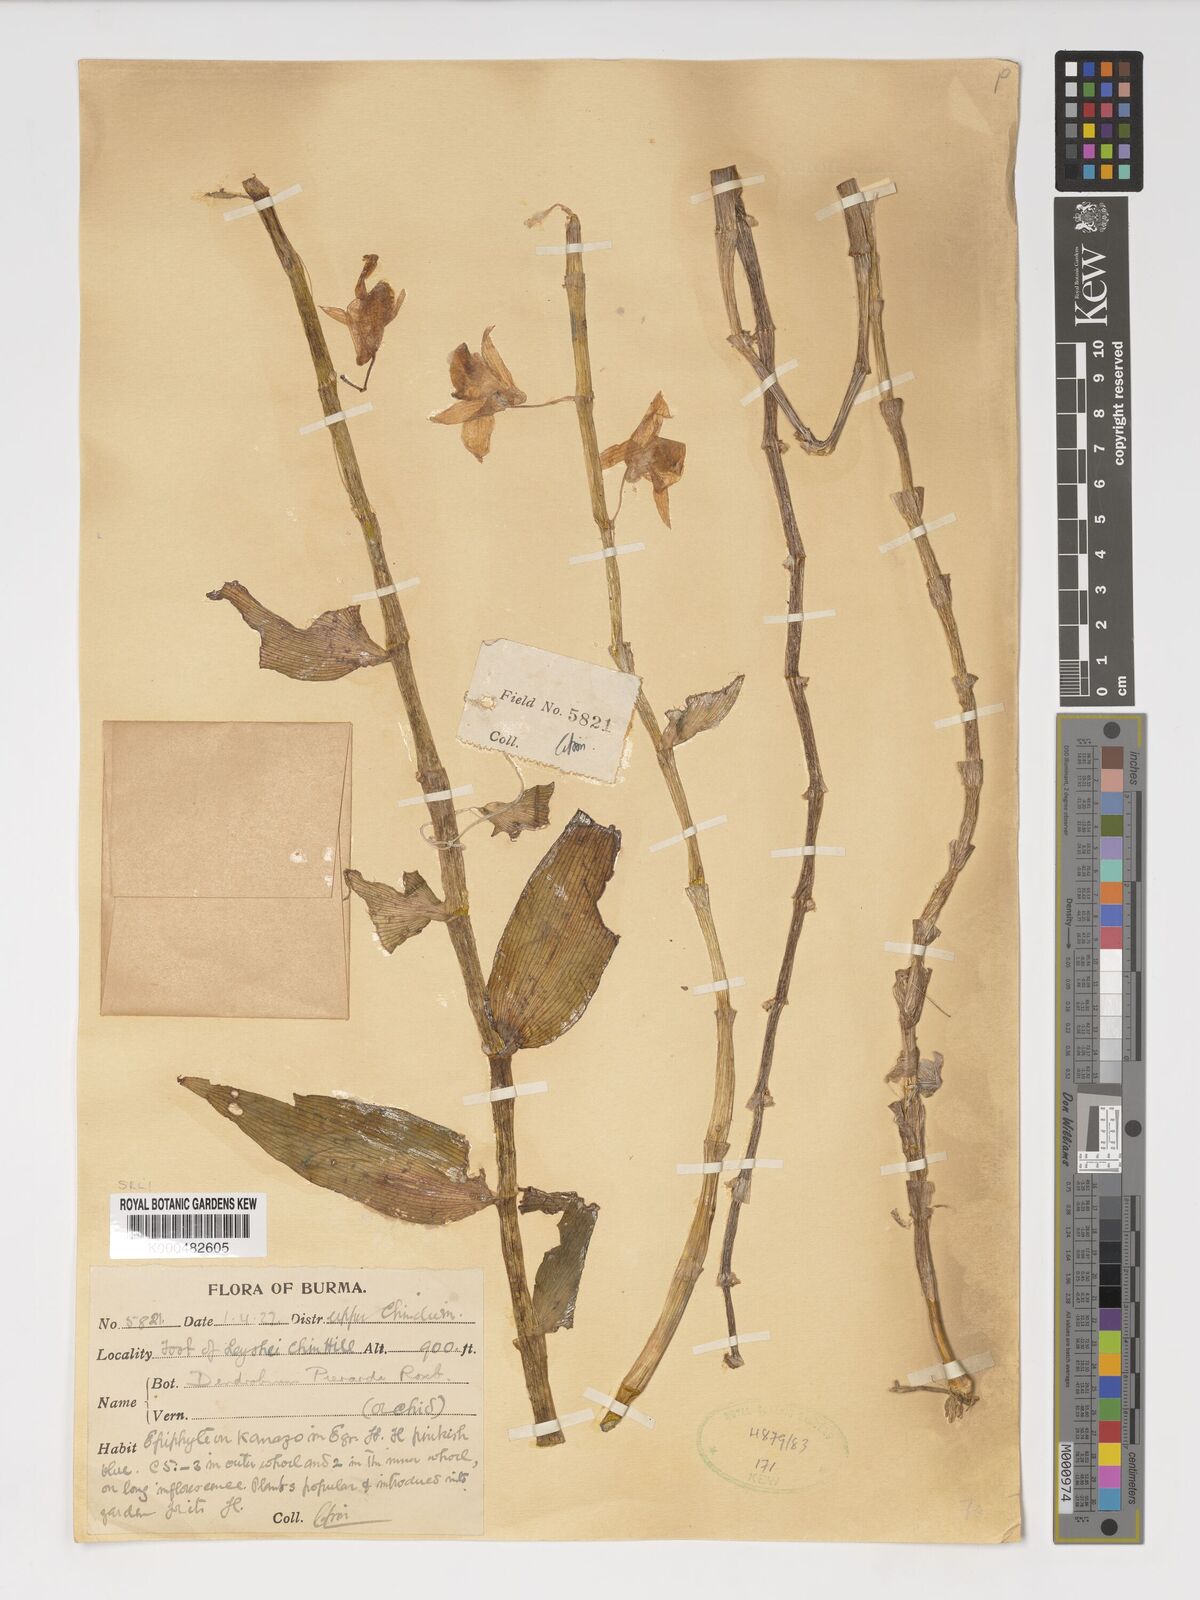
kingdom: Plantae
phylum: Tracheophyta
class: Liliopsida
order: Asparagales
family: Orchidaceae
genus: Dendrobium
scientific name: Dendrobium macrostachyum
